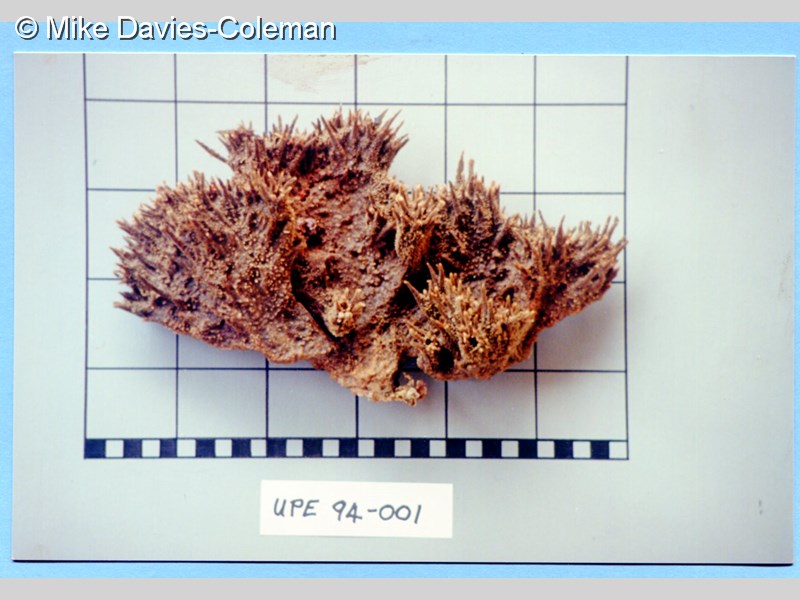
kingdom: Animalia
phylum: Porifera
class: Demospongiae
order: Poecilosclerida
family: Isodictyidae
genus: Isodictya
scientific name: Isodictya compressa
